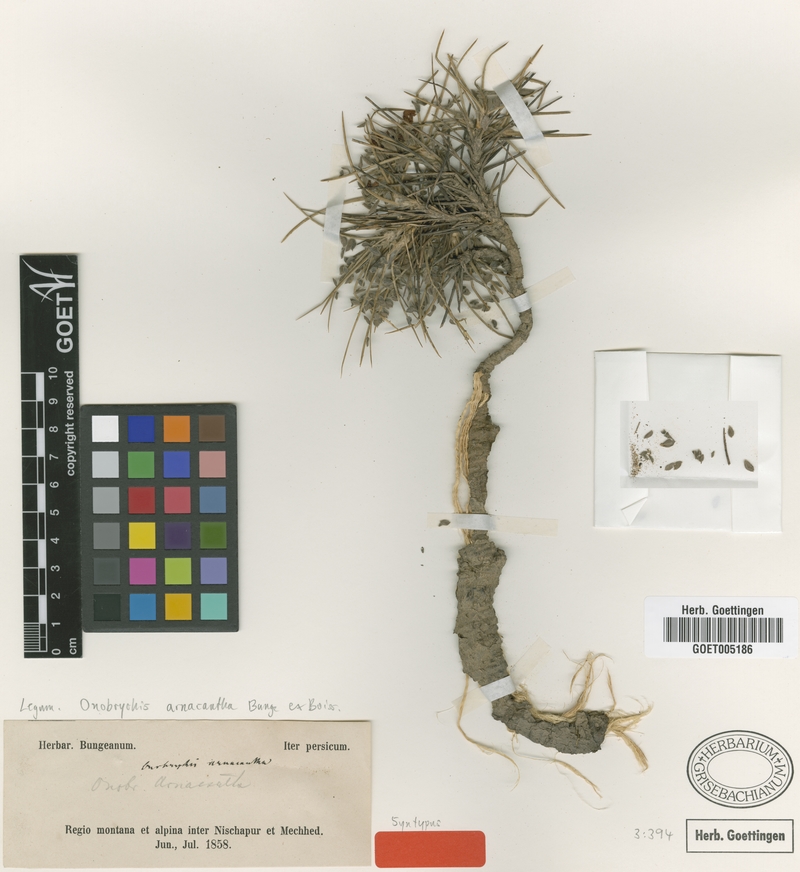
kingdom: Plantae
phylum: Tracheophyta
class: Magnoliopsida
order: Fabales
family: Fabaceae
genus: Onobrychis
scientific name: Onobrychis arnacantha
